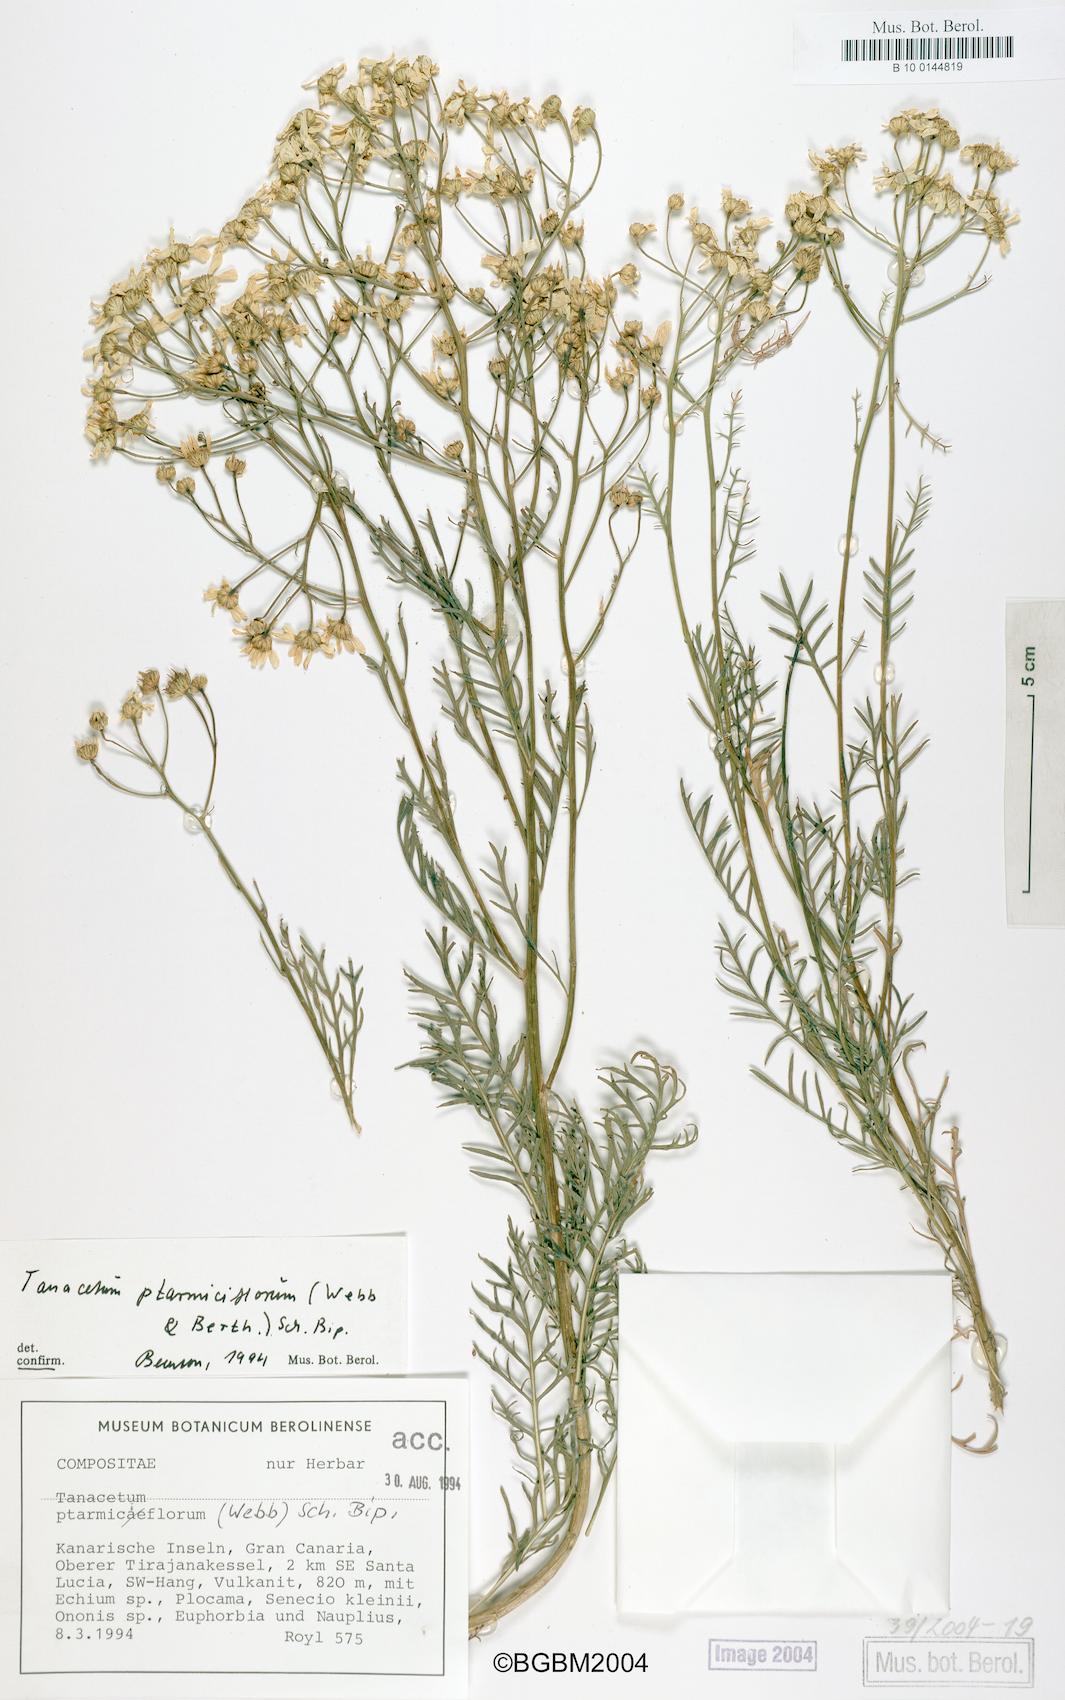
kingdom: Plantae
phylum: Tracheophyta
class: Magnoliopsida
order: Asterales
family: Asteraceae
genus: Gonospermum
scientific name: Gonospermum ptarmiciflorum
